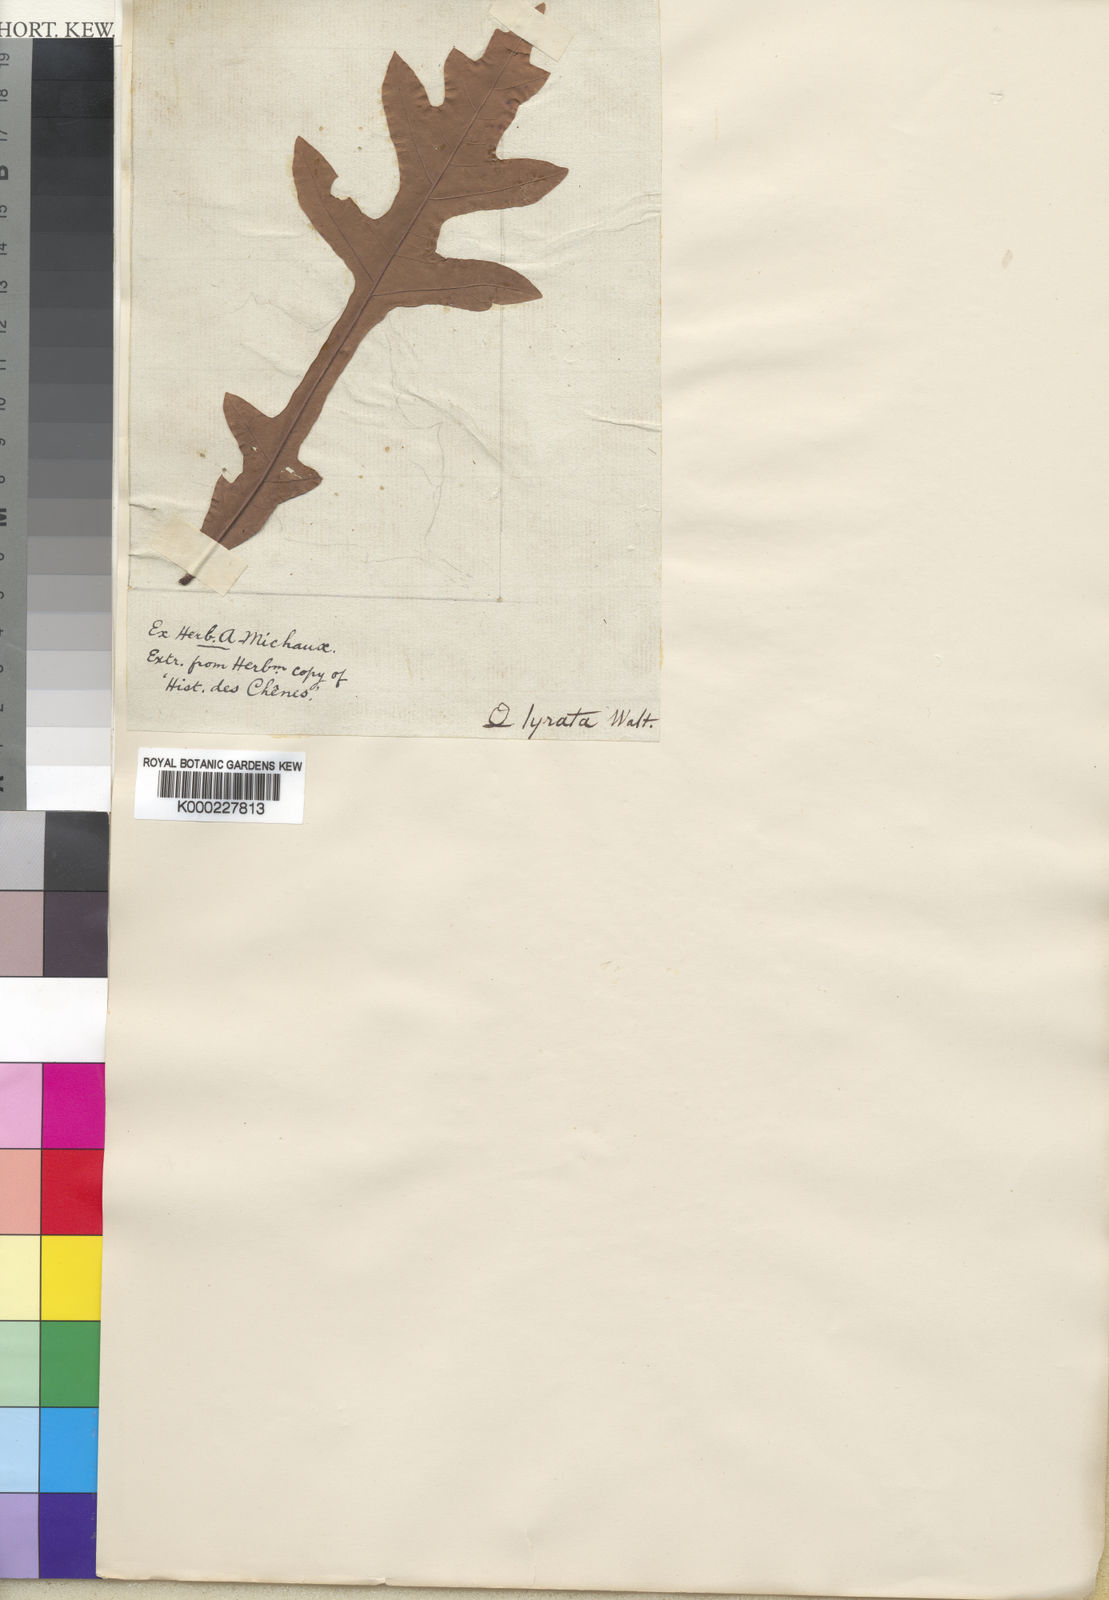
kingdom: Plantae
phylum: Tracheophyta
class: Magnoliopsida
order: Fagales
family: Fagaceae
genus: Quercus
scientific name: Quercus lyrata
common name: Overcup oak
